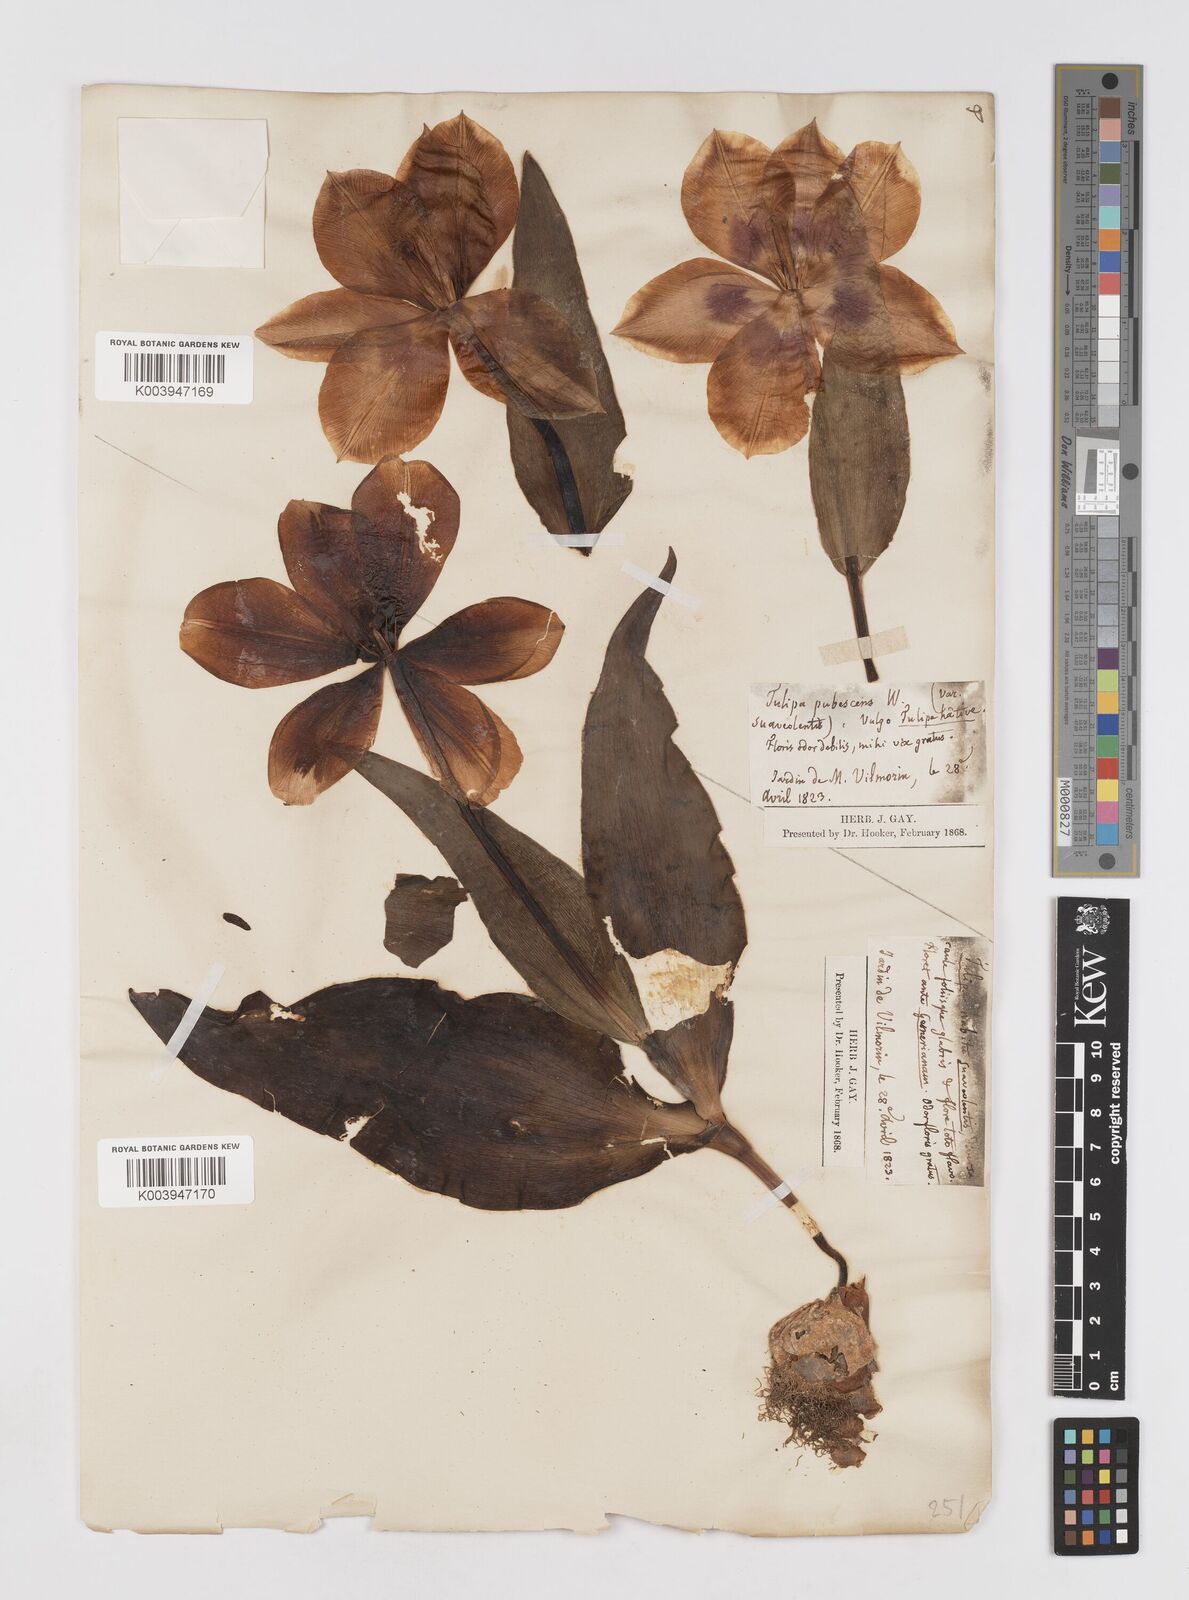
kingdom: Plantae
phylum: Tracheophyta
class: Liliopsida
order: Liliales
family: Liliaceae
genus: Tulipa
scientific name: Tulipa gesneriana
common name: Garden tulip
